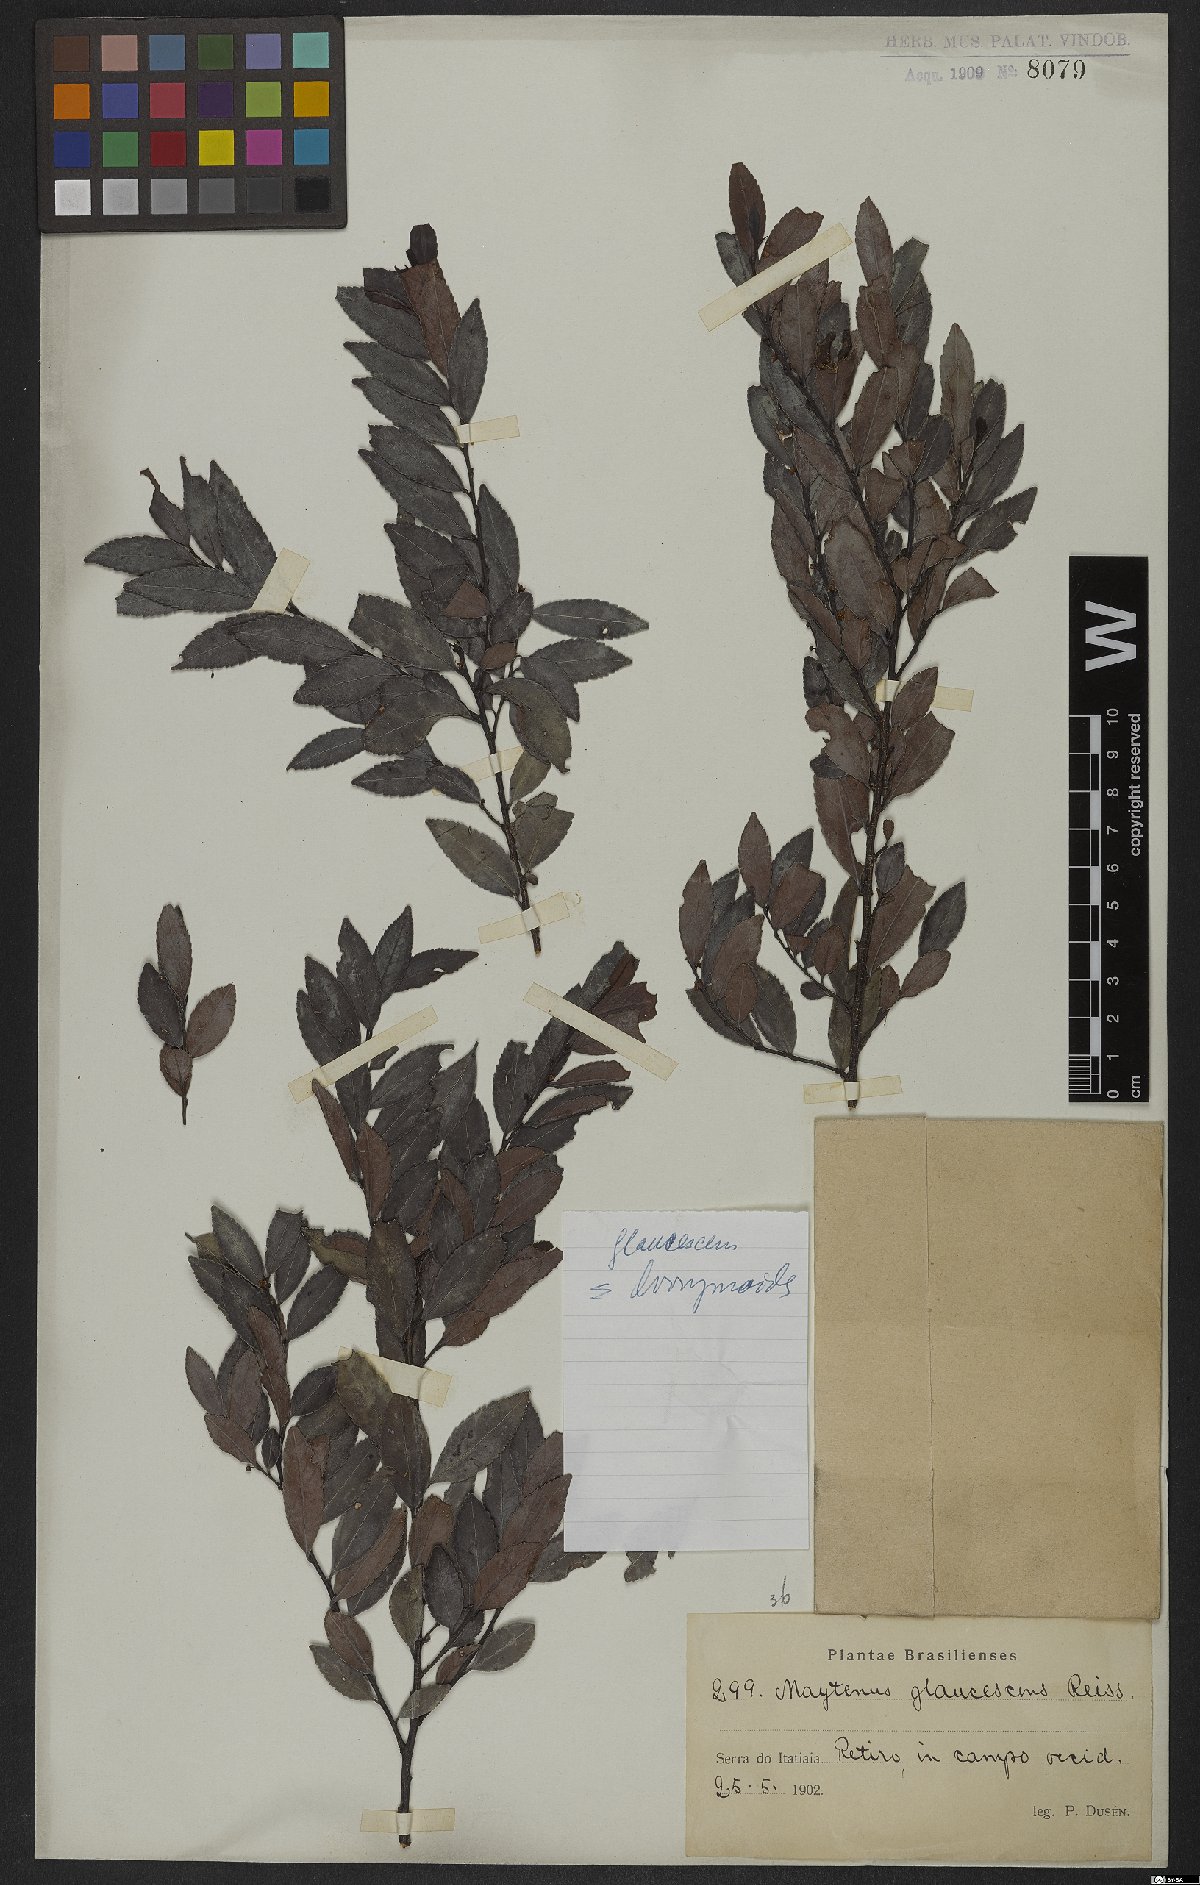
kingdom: Plantae
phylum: Tracheophyta
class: Magnoliopsida
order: Celastrales
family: Celastraceae
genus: Monteverdia
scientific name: Monteverdia glaucescens
